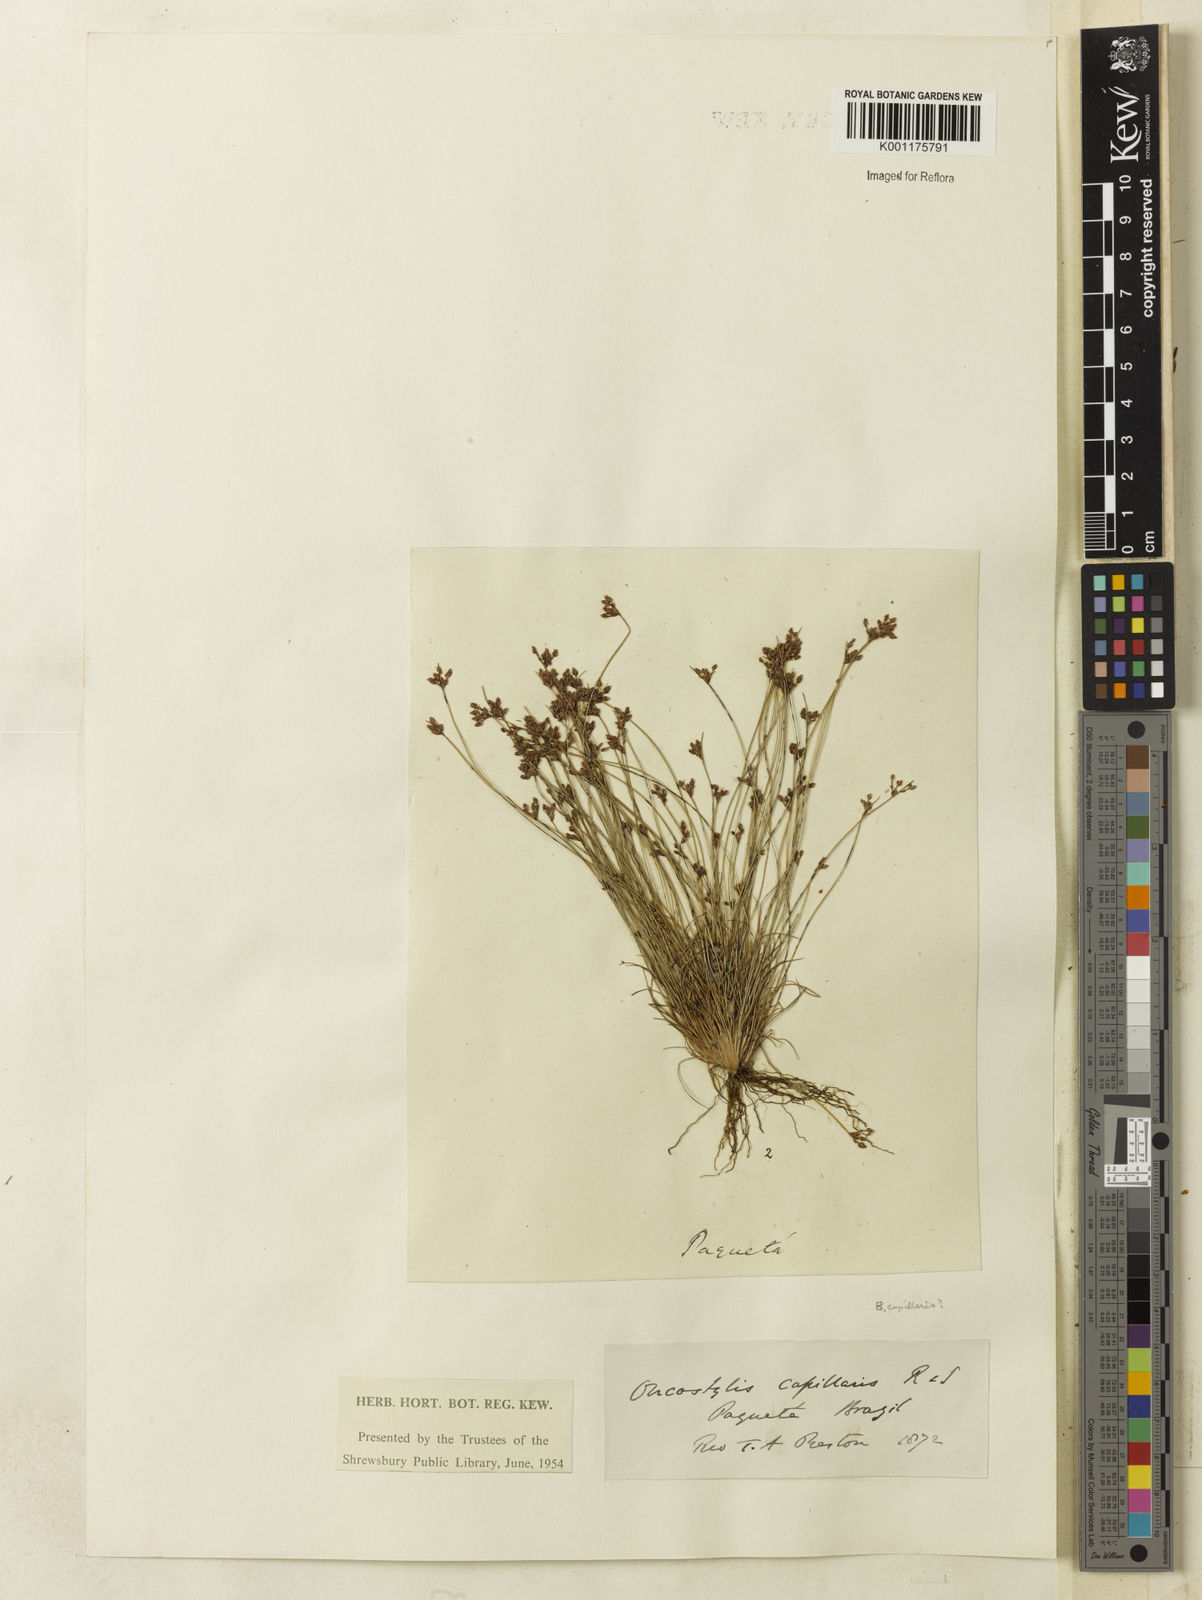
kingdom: Plantae
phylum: Tracheophyta
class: Liliopsida
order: Poales
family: Cyperaceae
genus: Bulbostylis
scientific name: Bulbostylis capillaris
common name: Densetuft hairsedge
